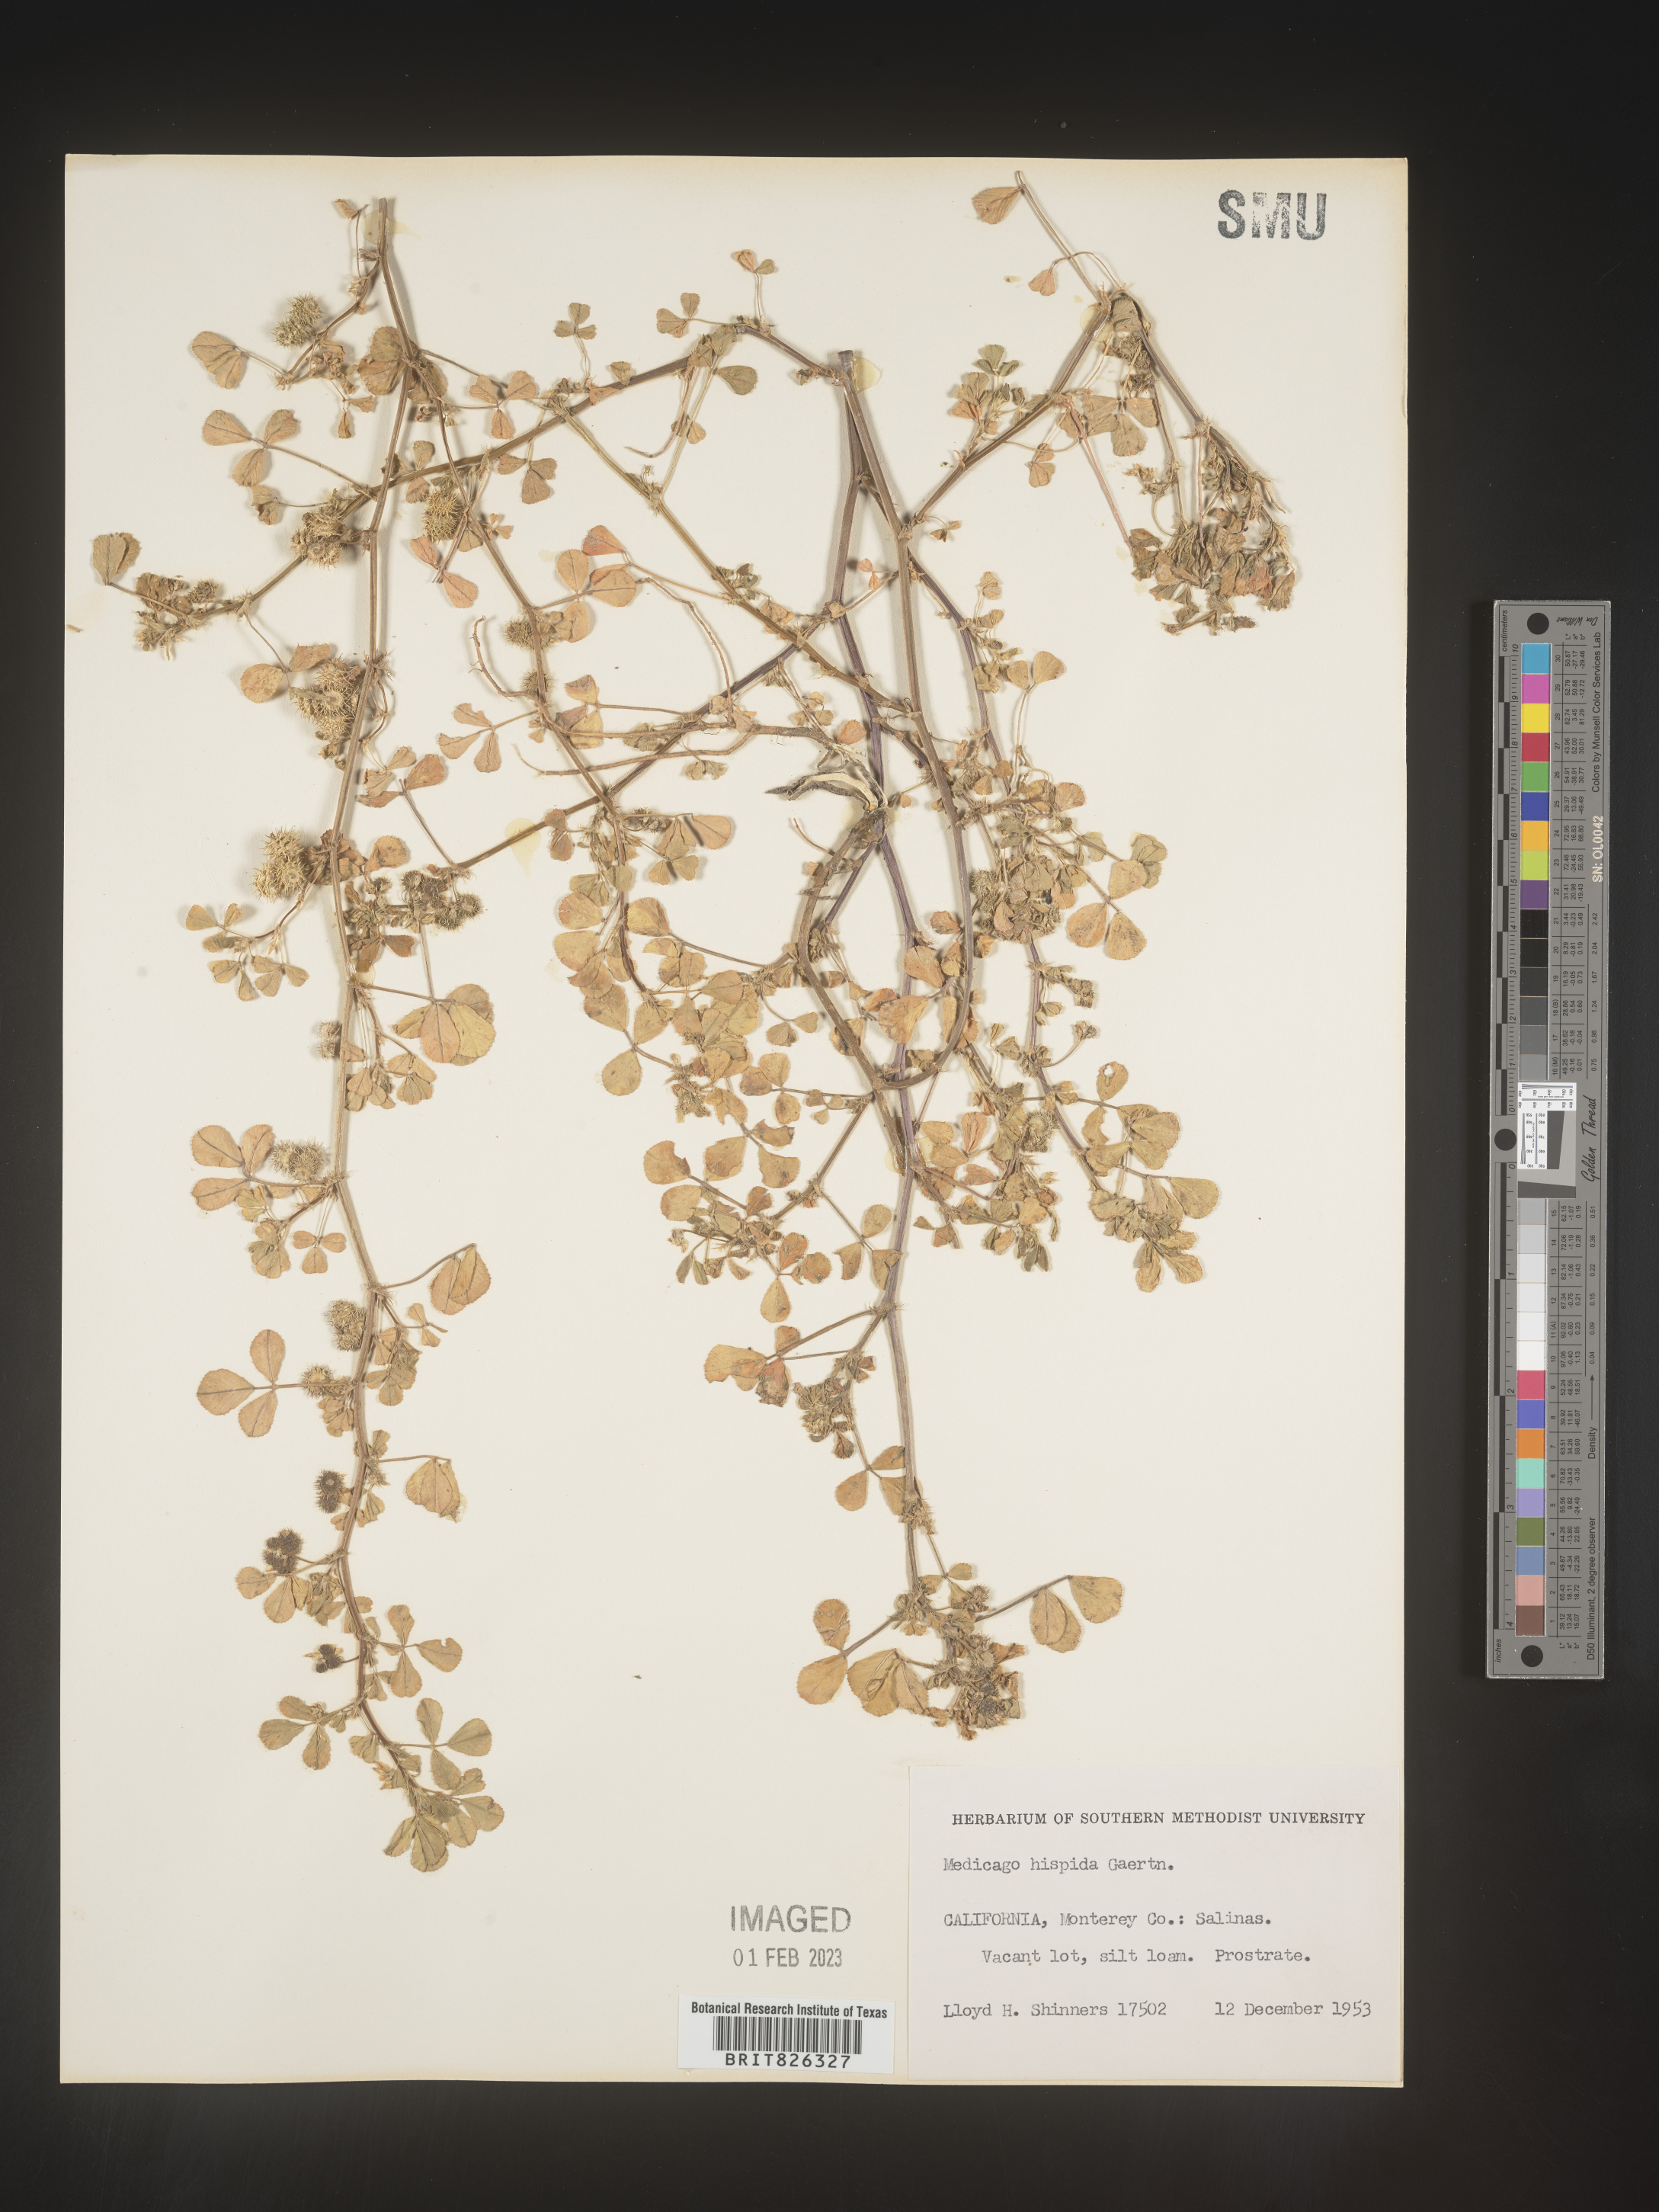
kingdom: Plantae
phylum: Tracheophyta
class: Magnoliopsida
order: Fabales
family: Fabaceae
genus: Medicago
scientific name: Medicago polymorpha
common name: Burclover
